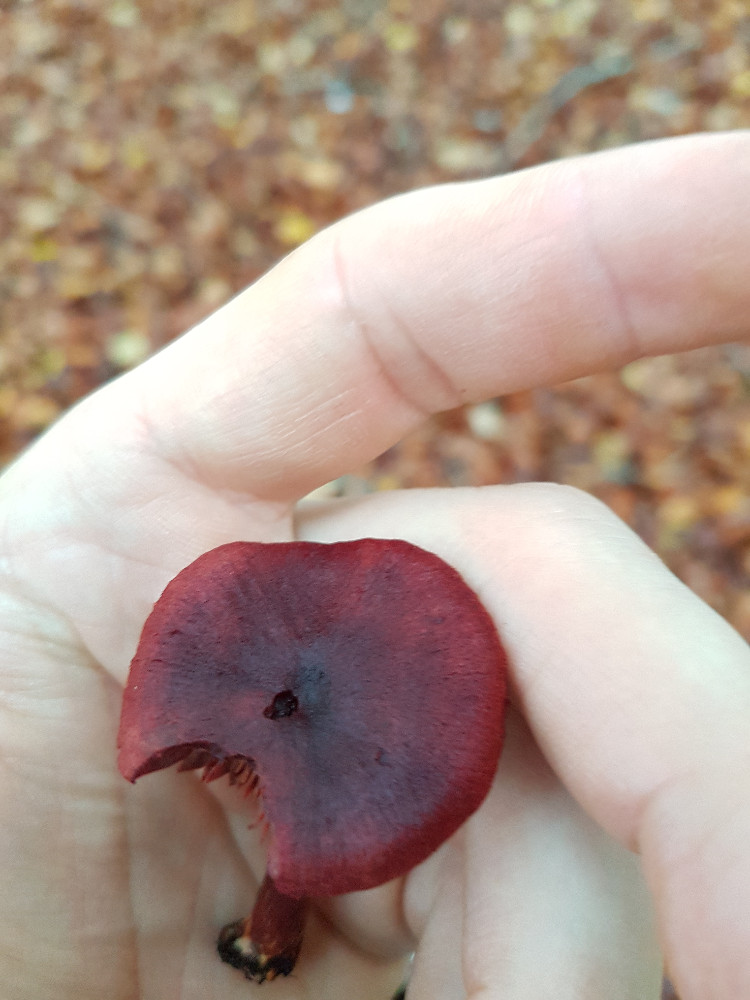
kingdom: Fungi
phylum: Basidiomycota
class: Agaricomycetes
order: Agaricales
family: Cortinariaceae
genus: Cortinarius
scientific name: Cortinarius sanguineus
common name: Bloodred webcap
